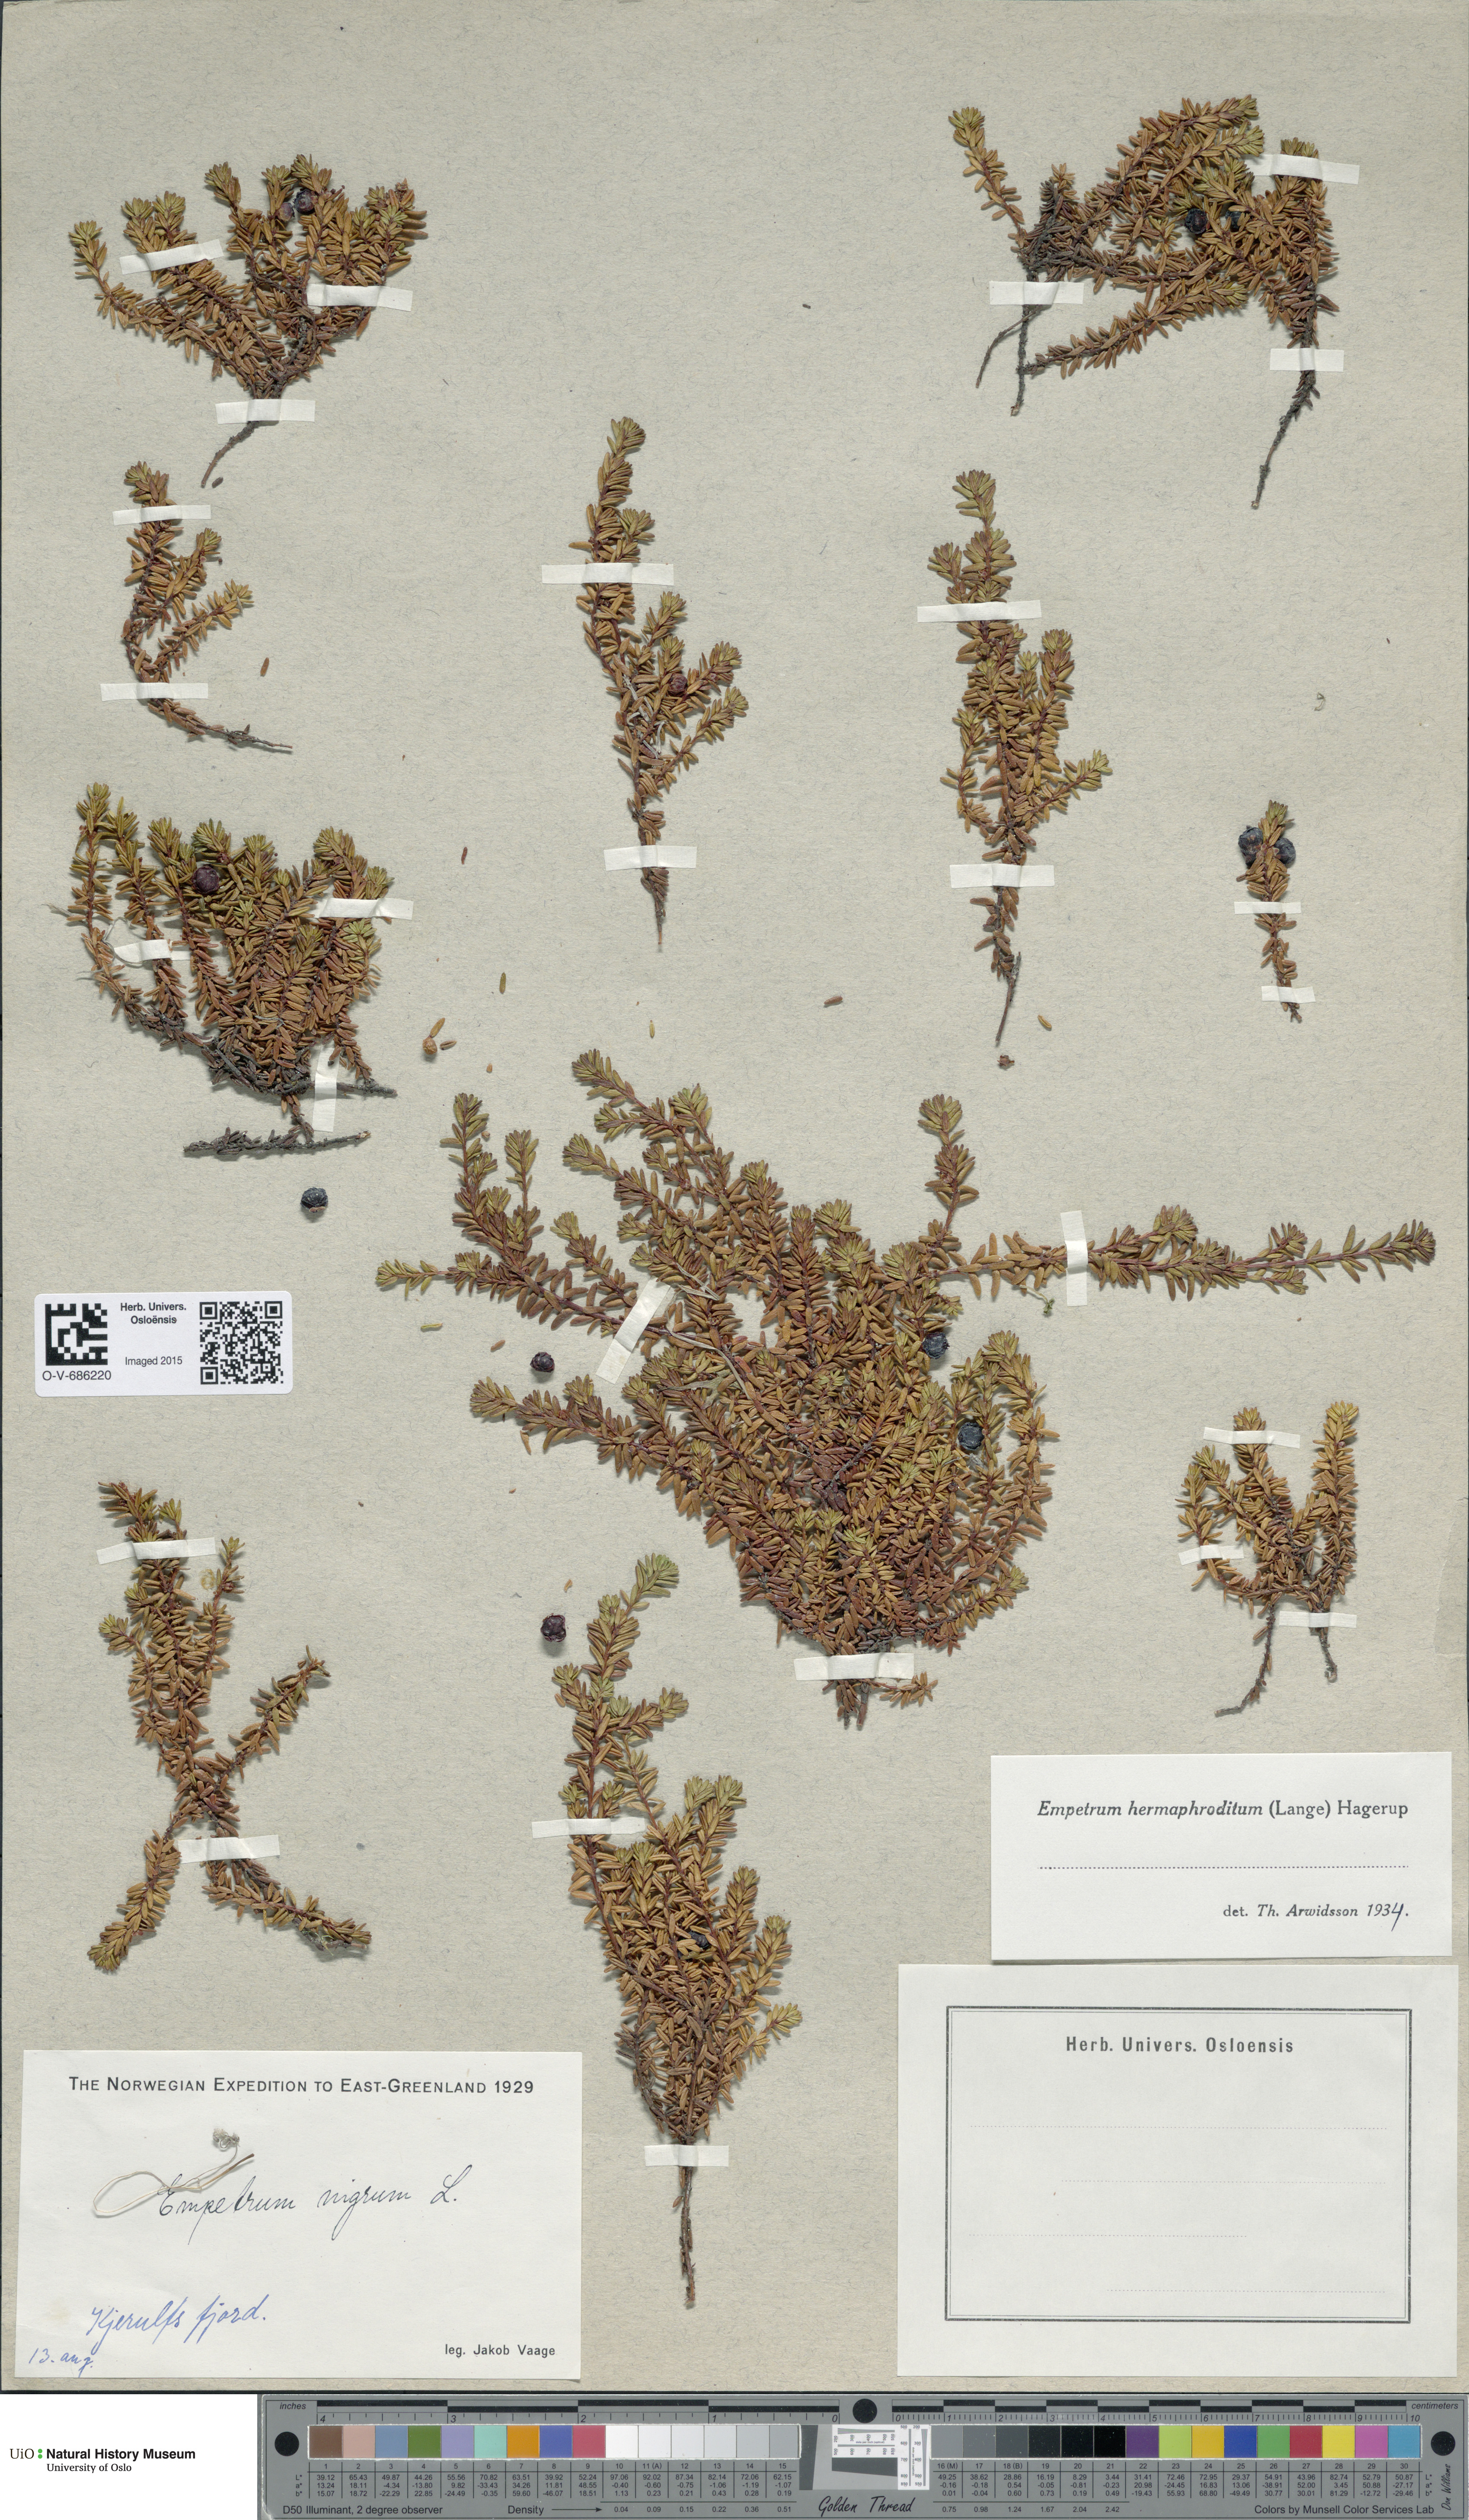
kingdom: Plantae
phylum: Tracheophyta
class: Magnoliopsida
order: Ericales
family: Ericaceae
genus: Empetrum
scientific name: Empetrum hermaphroditum
